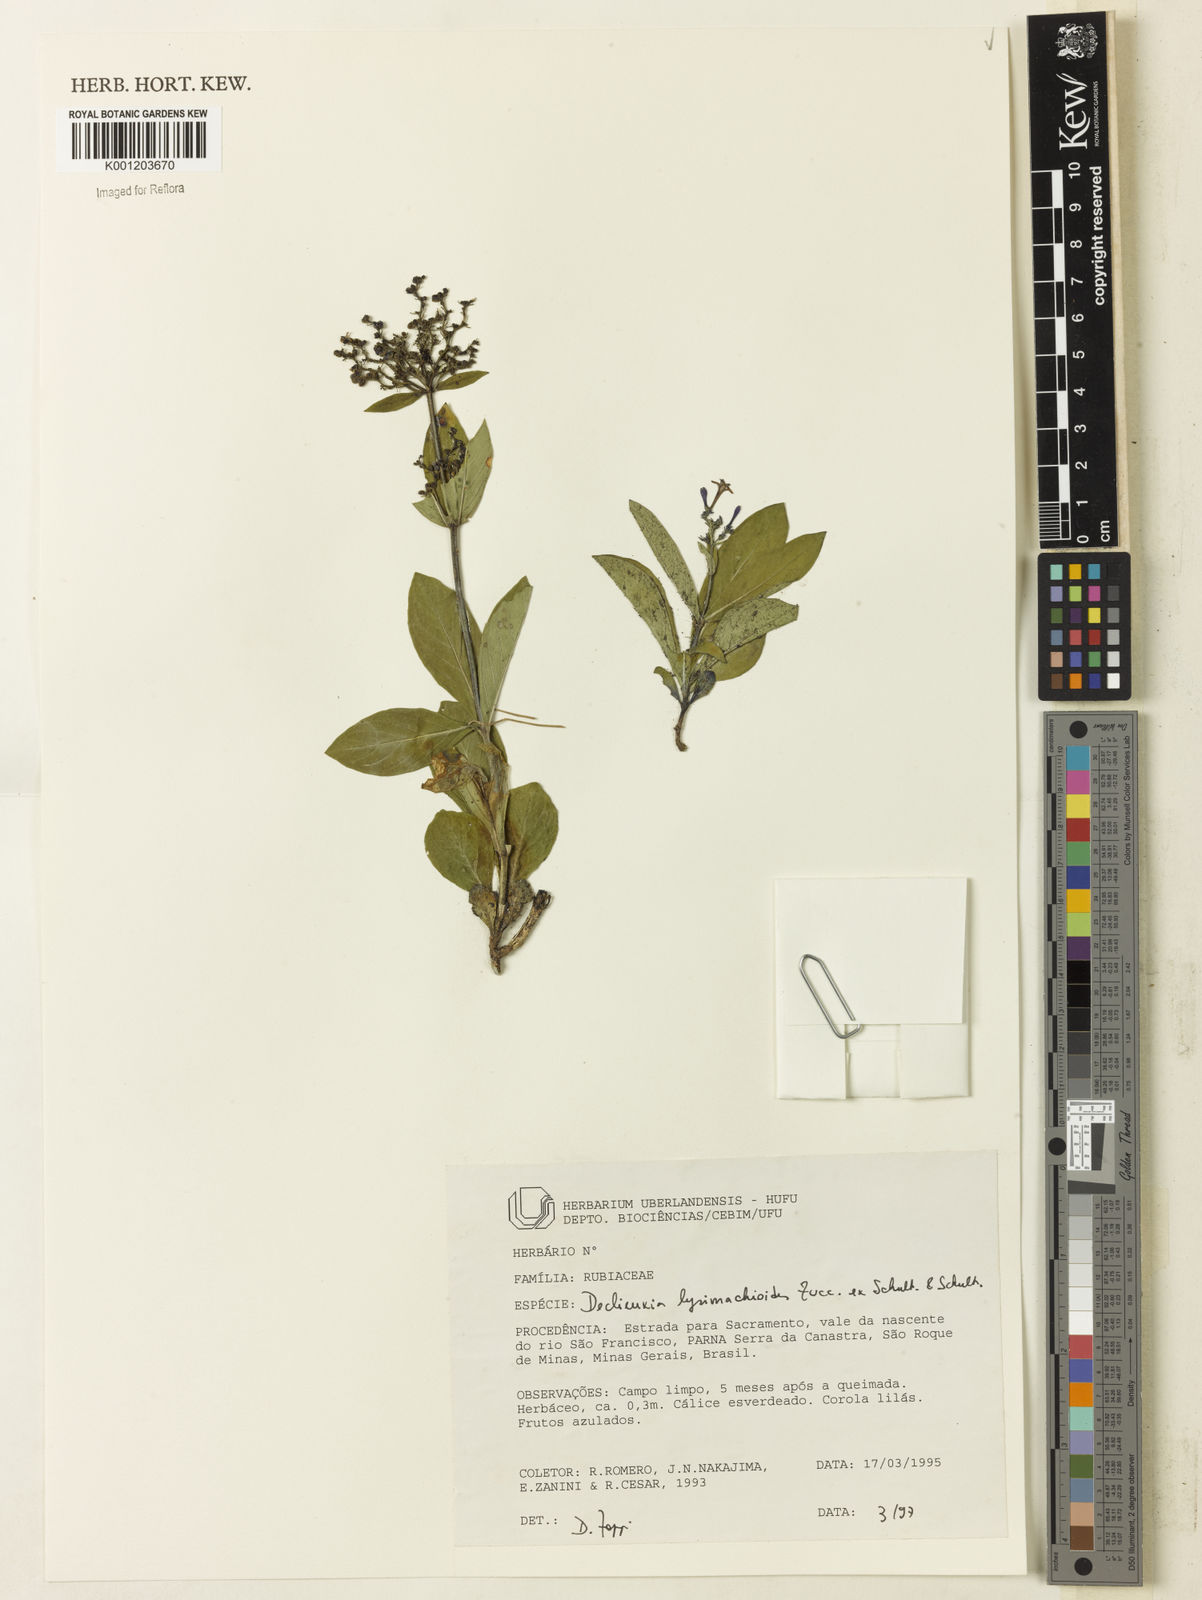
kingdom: Plantae
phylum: Tracheophyta
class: Magnoliopsida
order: Gentianales
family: Rubiaceae
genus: Declieuxia
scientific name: Declieuxia
